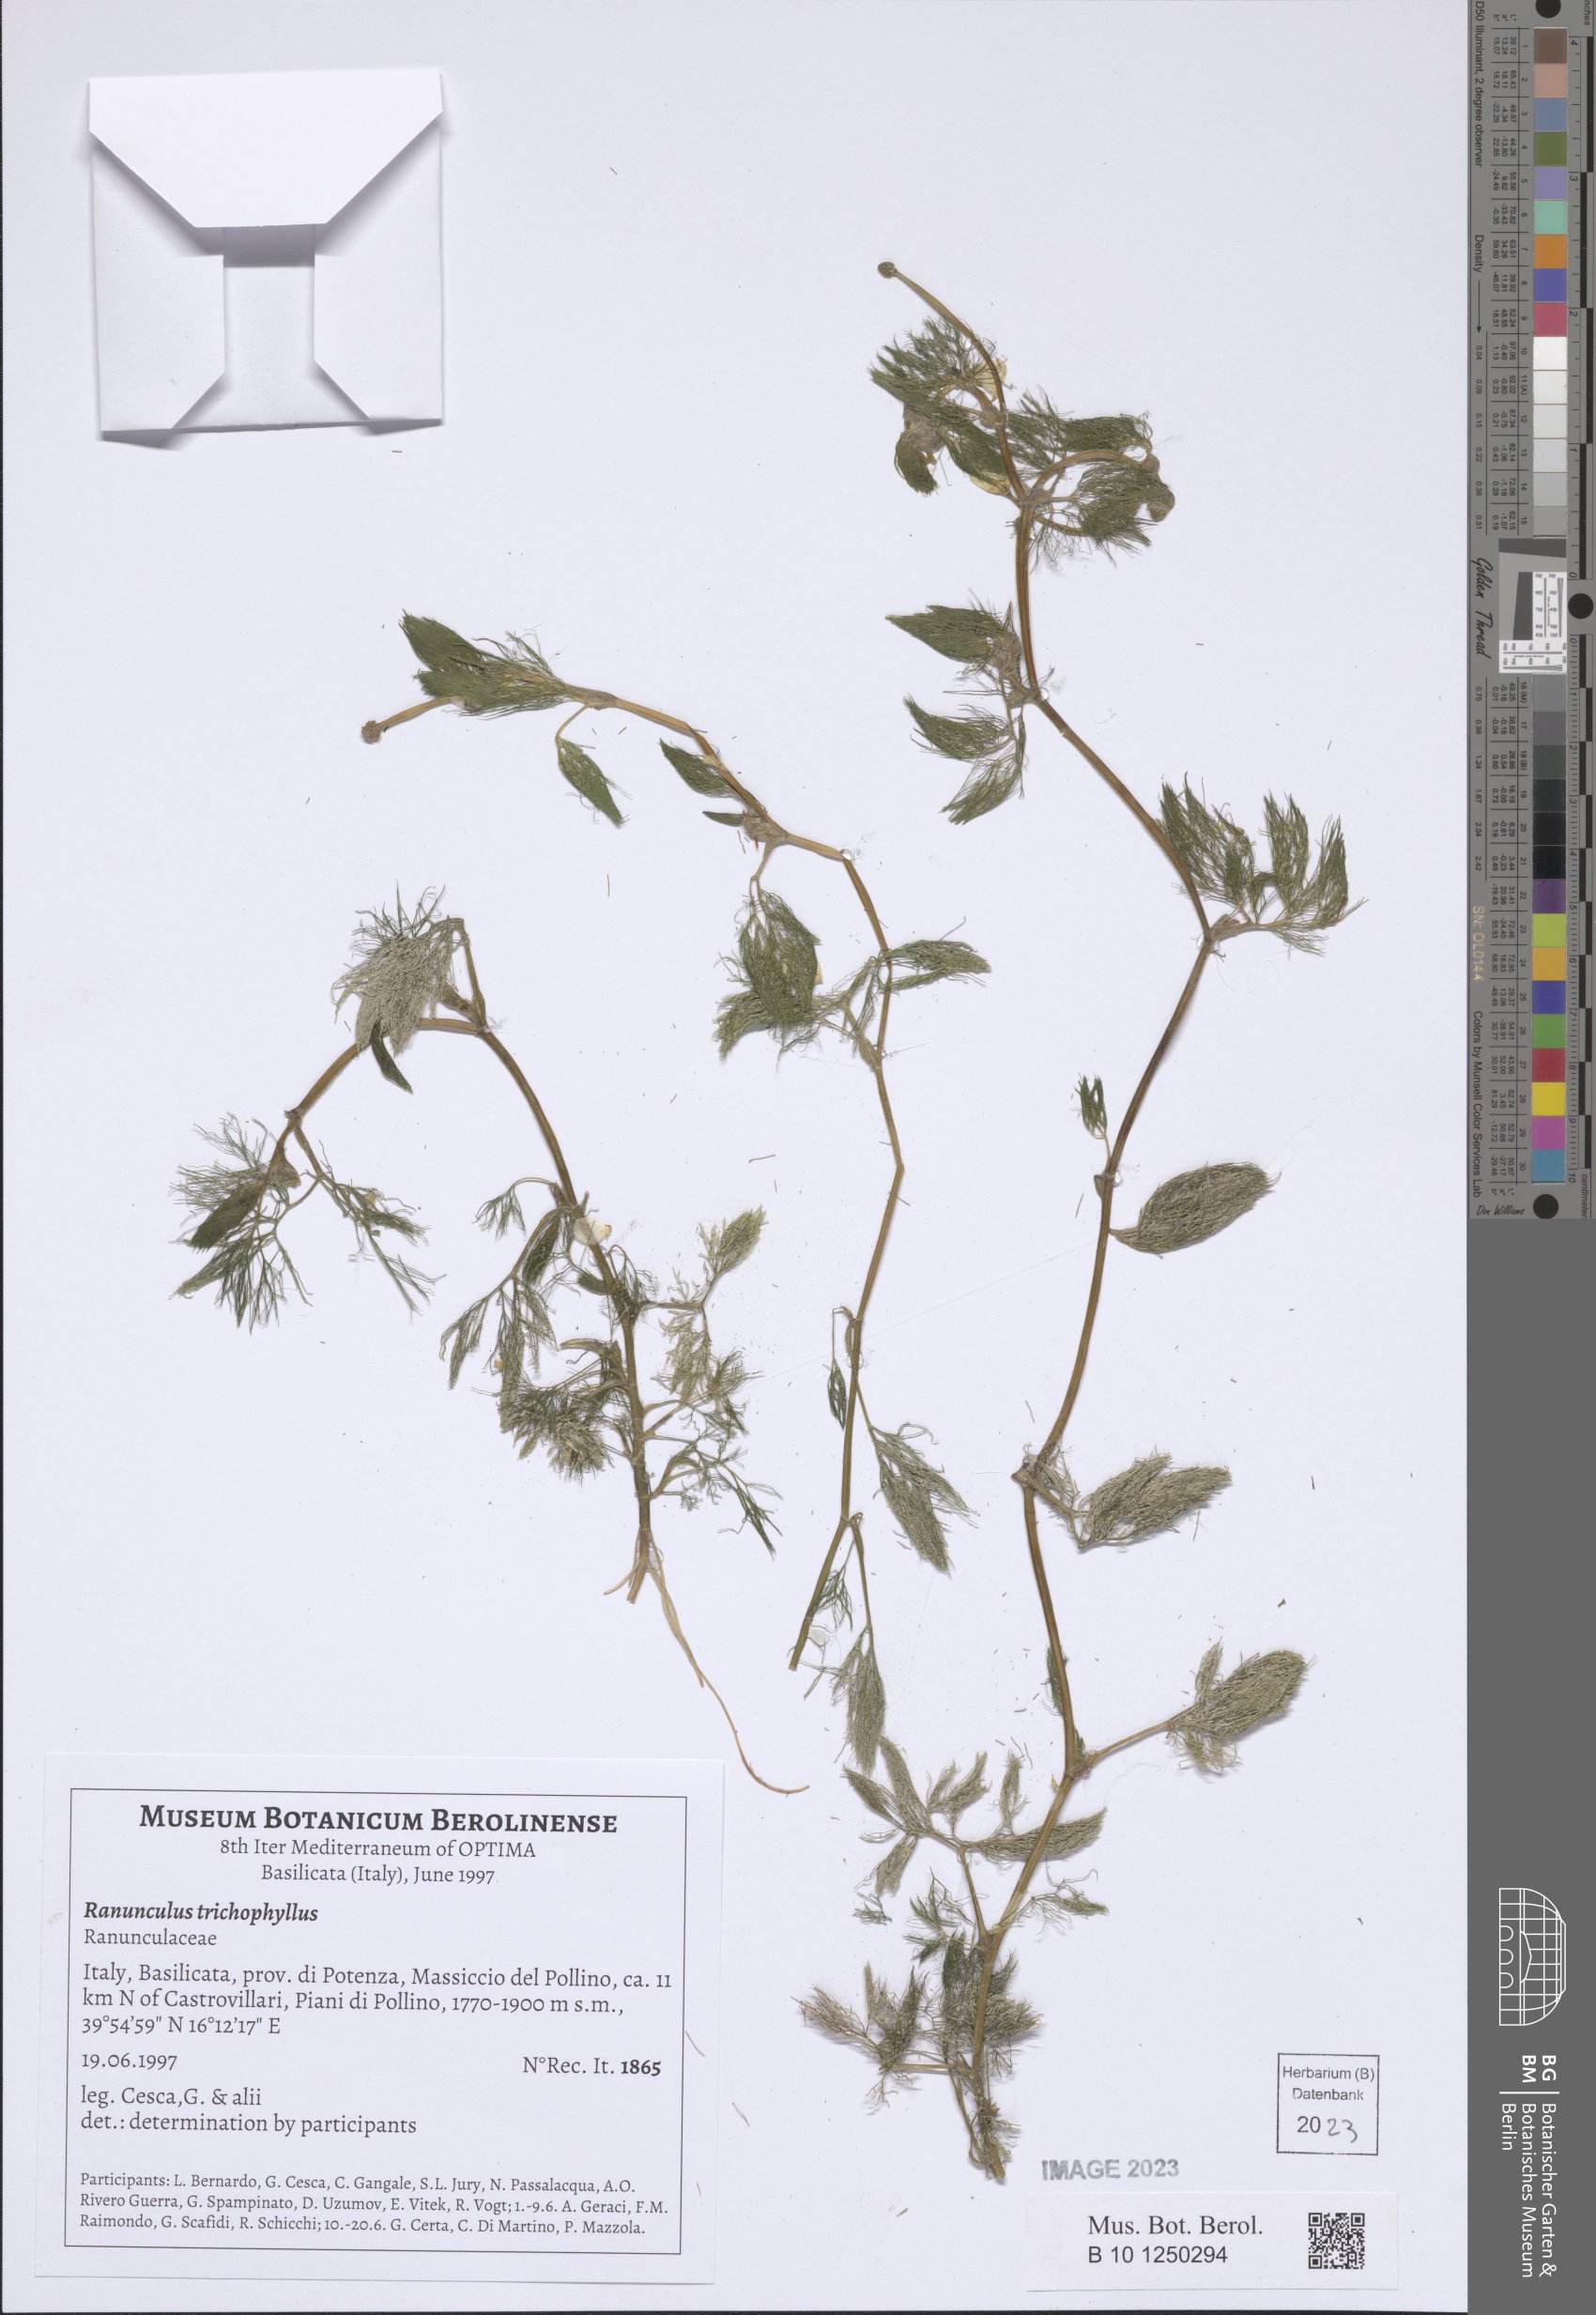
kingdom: Plantae
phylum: Tracheophyta
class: Magnoliopsida
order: Ranunculales
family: Ranunculaceae
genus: Ranunculus
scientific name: Ranunculus trichophyllus
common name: Thread-leaved water-crowfoot
